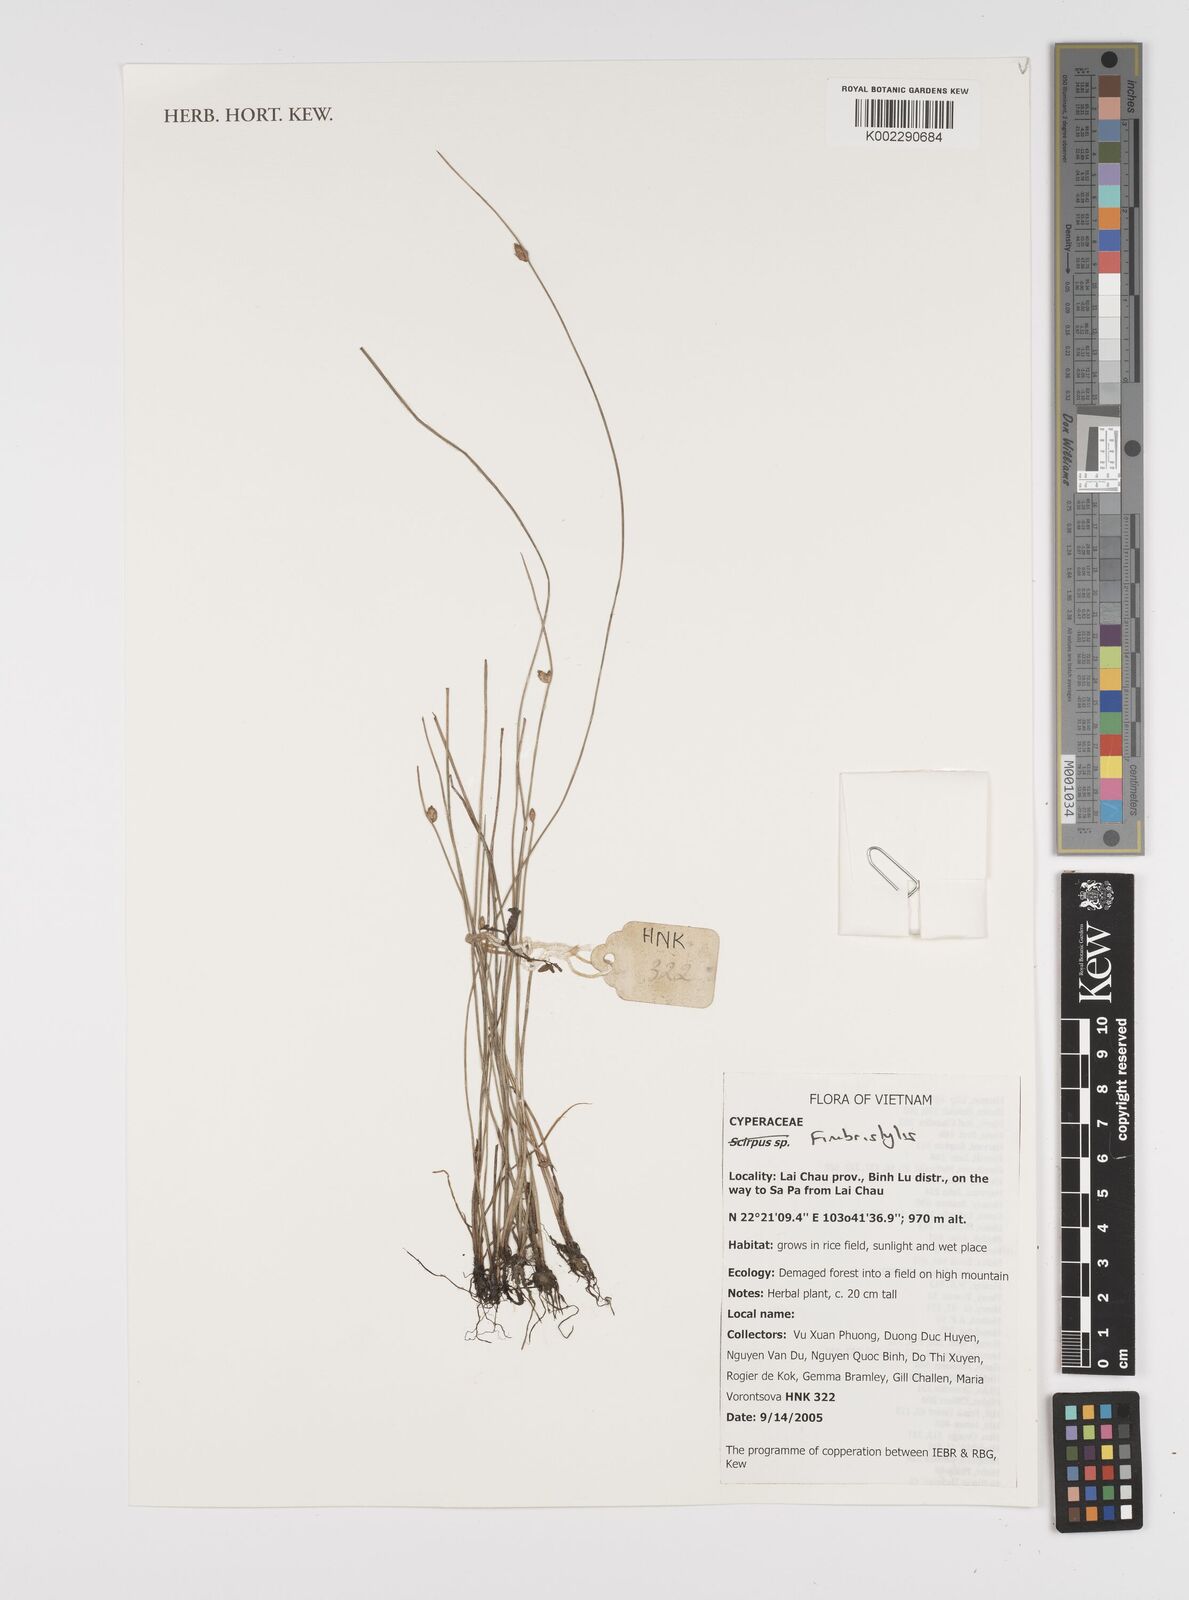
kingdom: Plantae
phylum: Tracheophyta
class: Liliopsida
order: Poales
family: Cyperaceae
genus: Fimbristylis
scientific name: Fimbristylis
